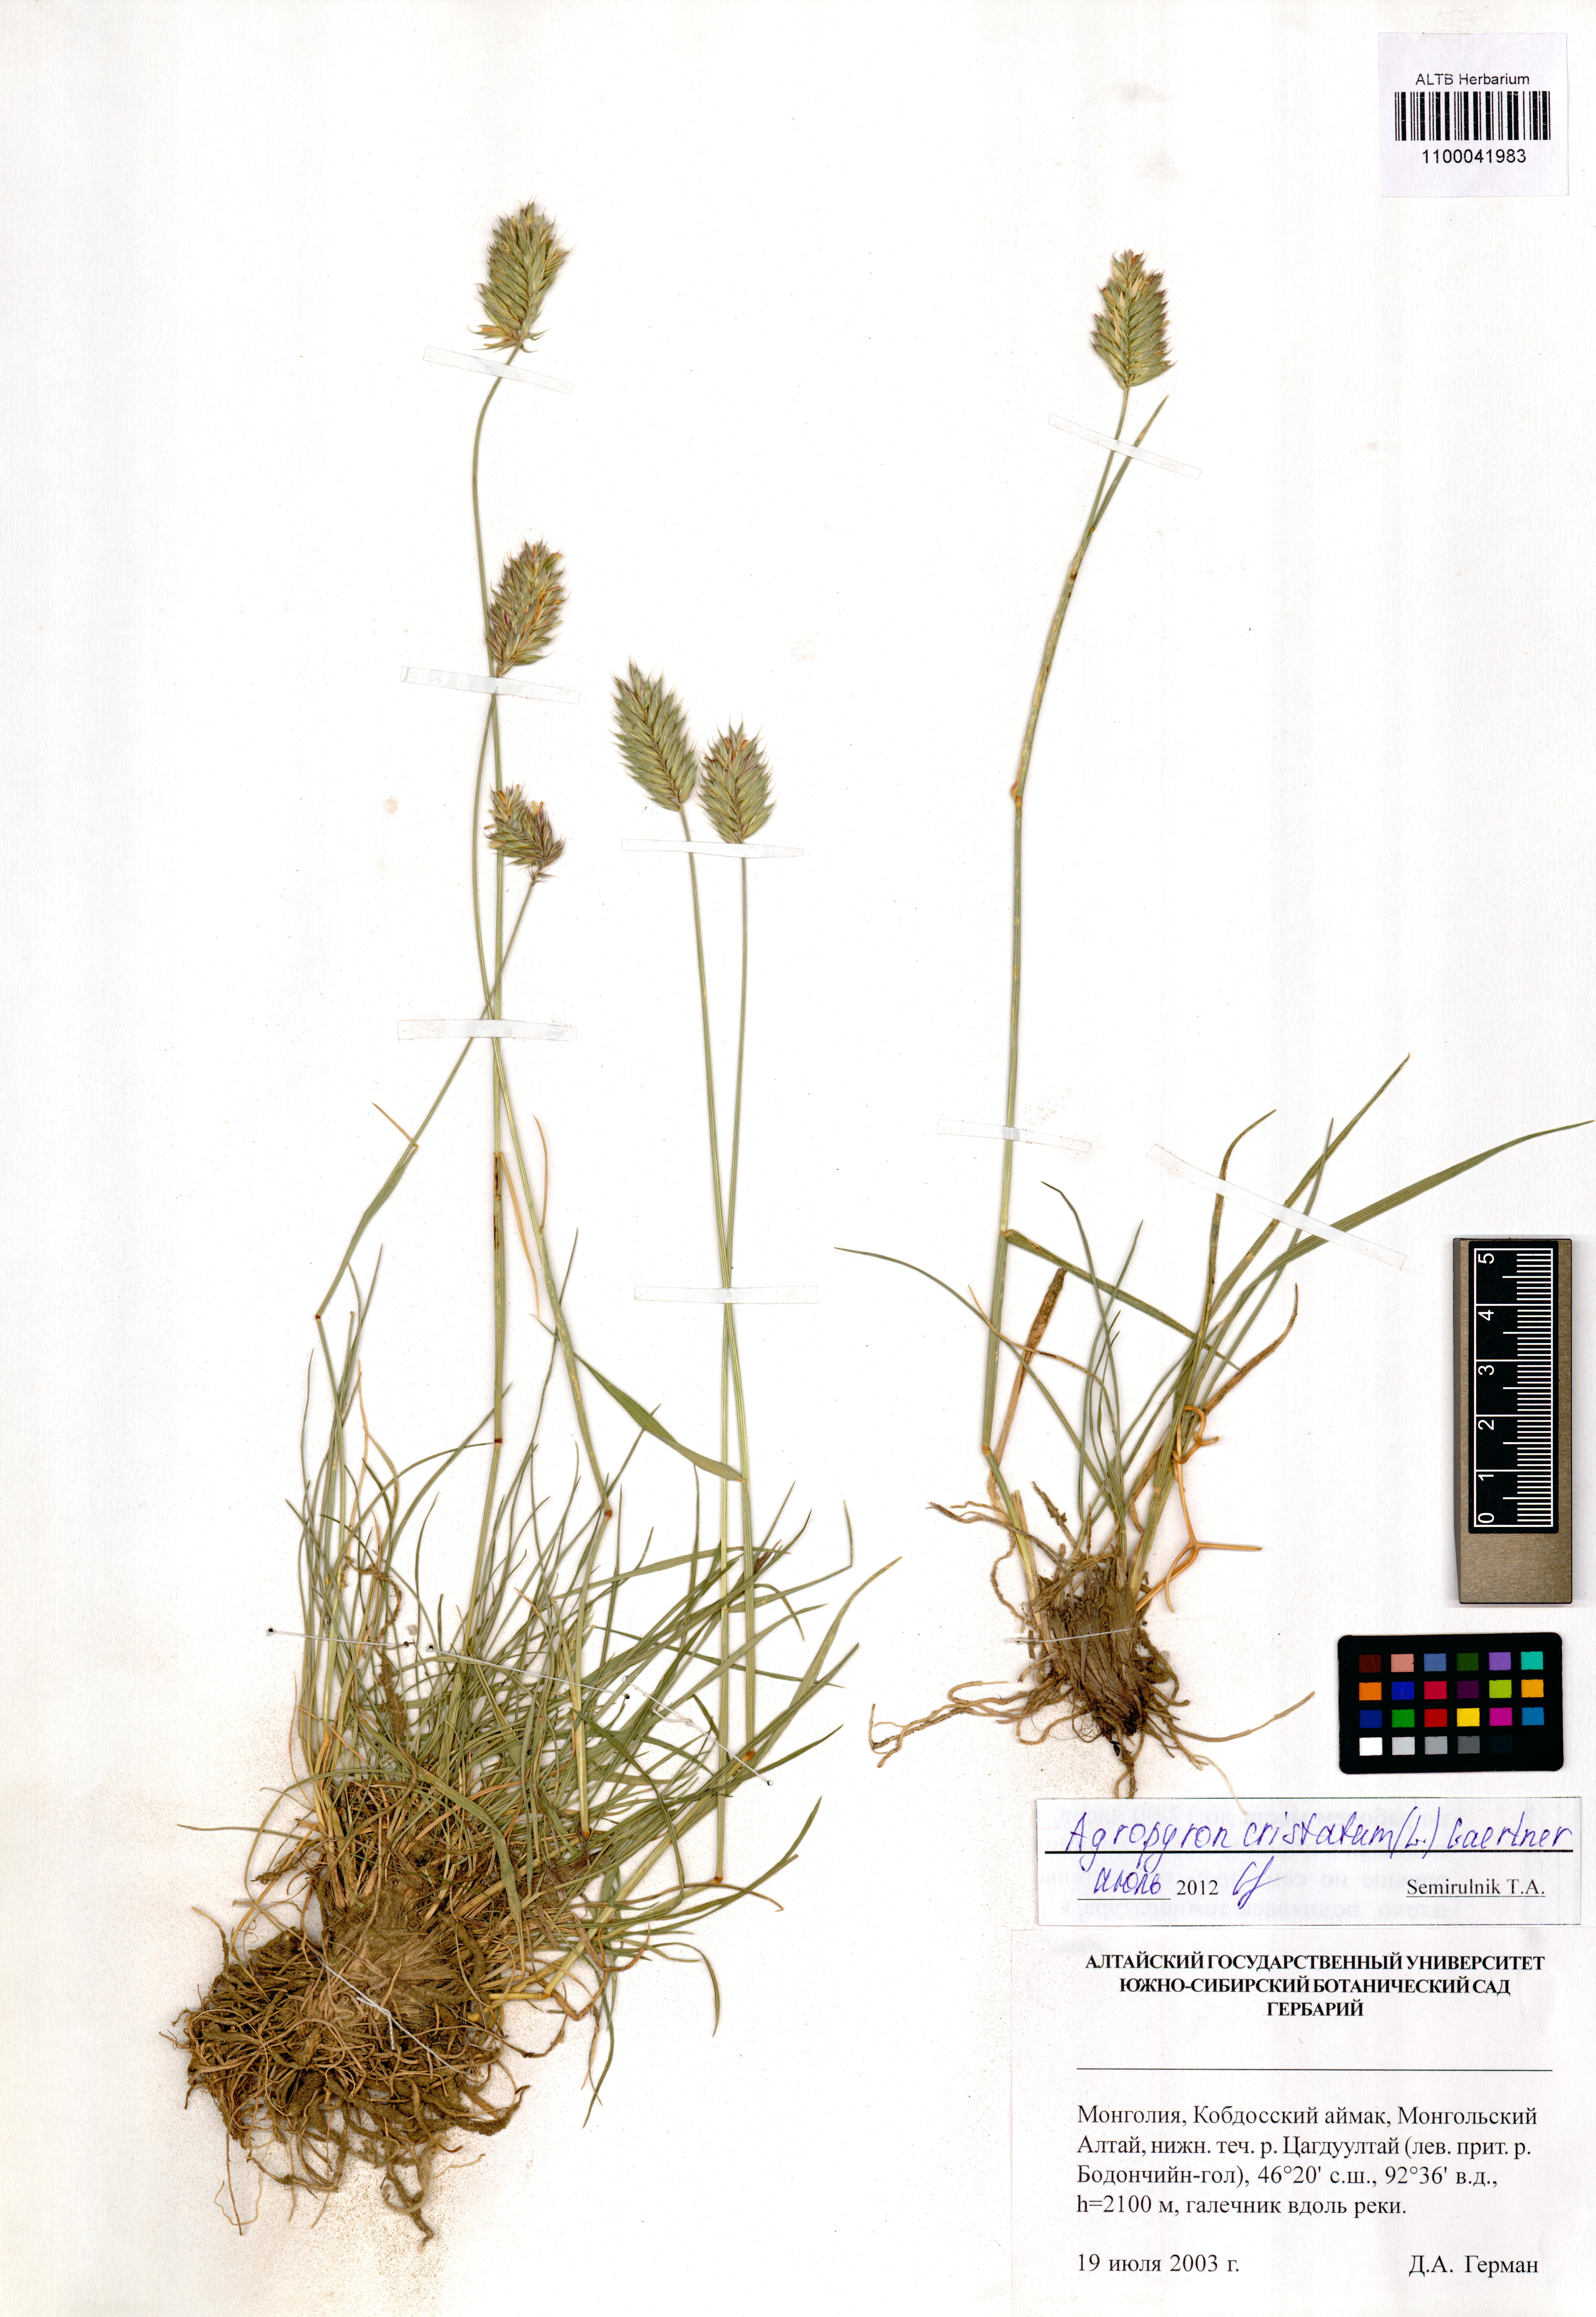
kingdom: Plantae
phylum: Tracheophyta
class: Liliopsida
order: Poales
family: Poaceae
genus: Agropyron
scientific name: Agropyron cristatum
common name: Crested wheatgrass
